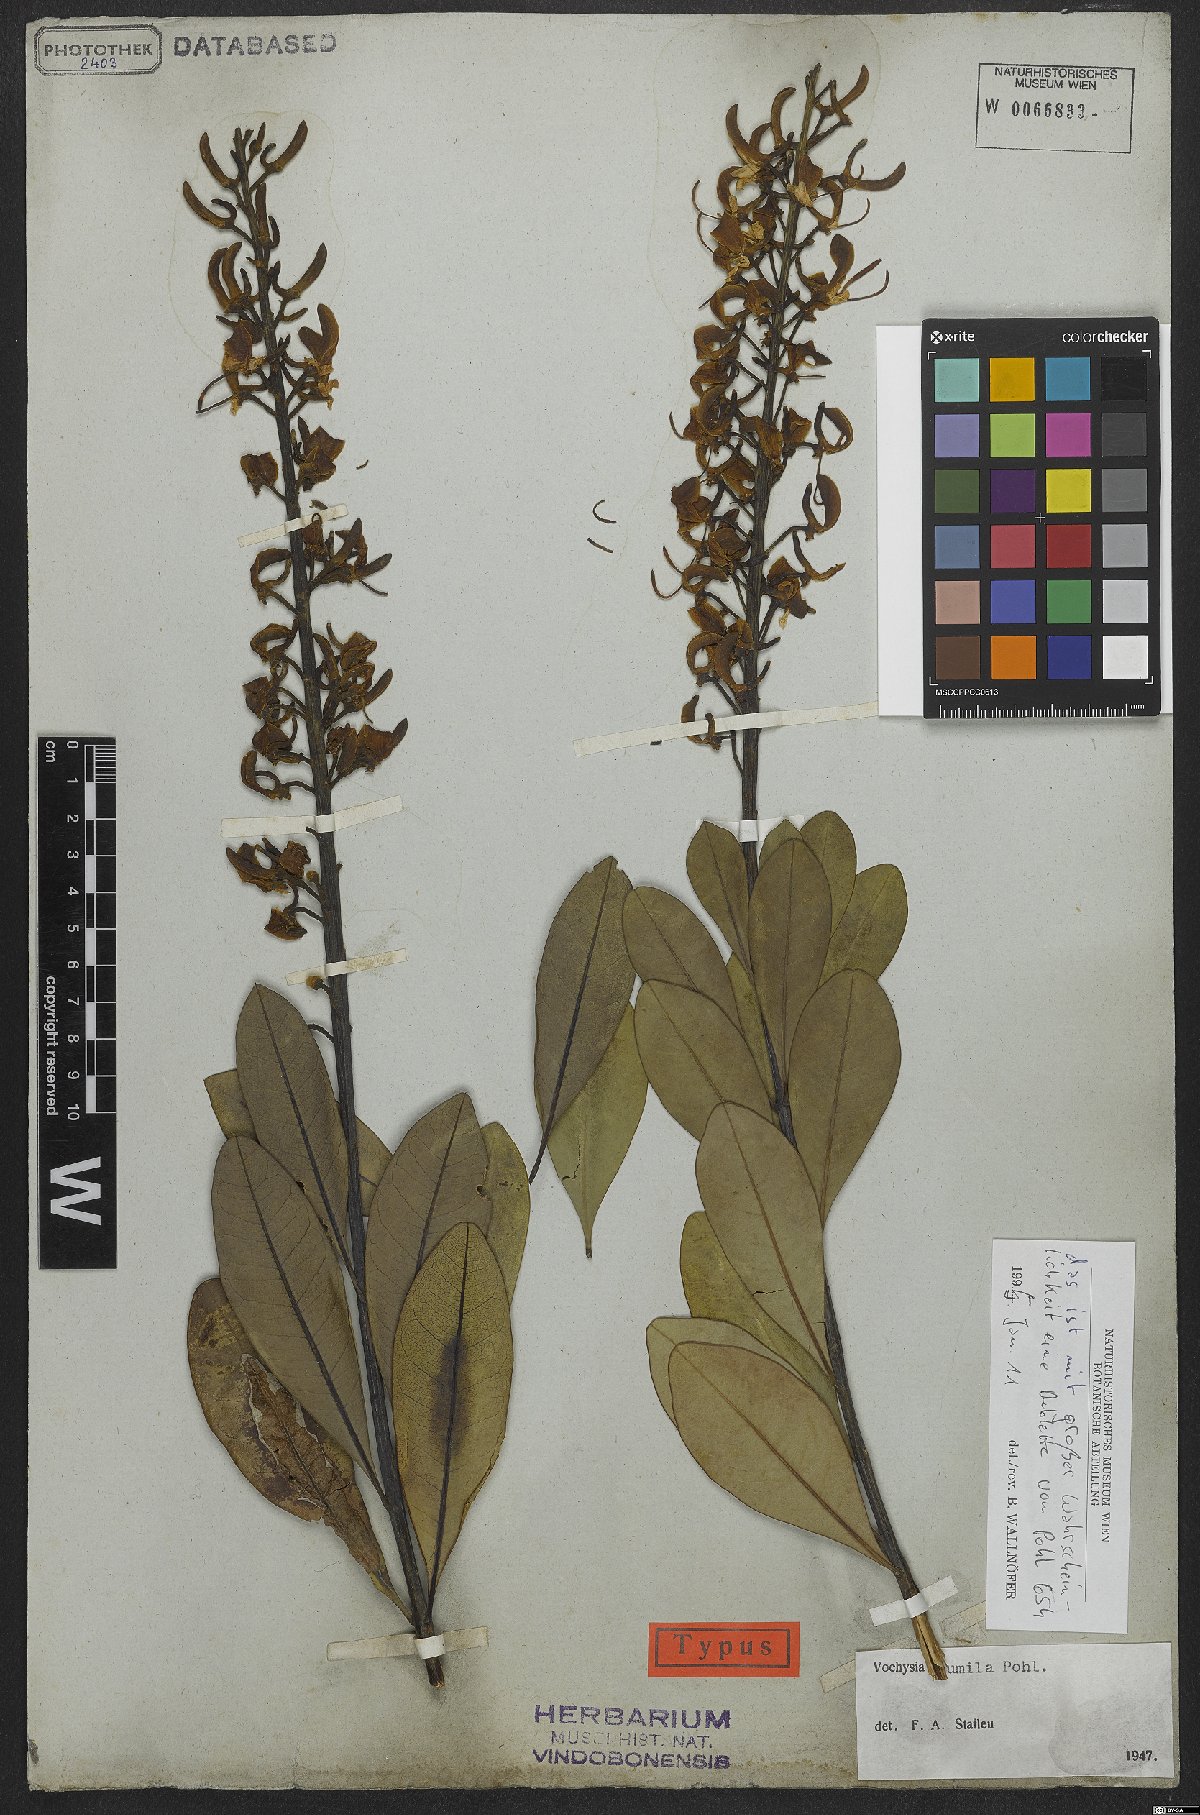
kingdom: Plantae
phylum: Tracheophyta
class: Magnoliopsida
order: Myrtales
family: Vochysiaceae
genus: Vochysia
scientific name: Vochysia pumila
